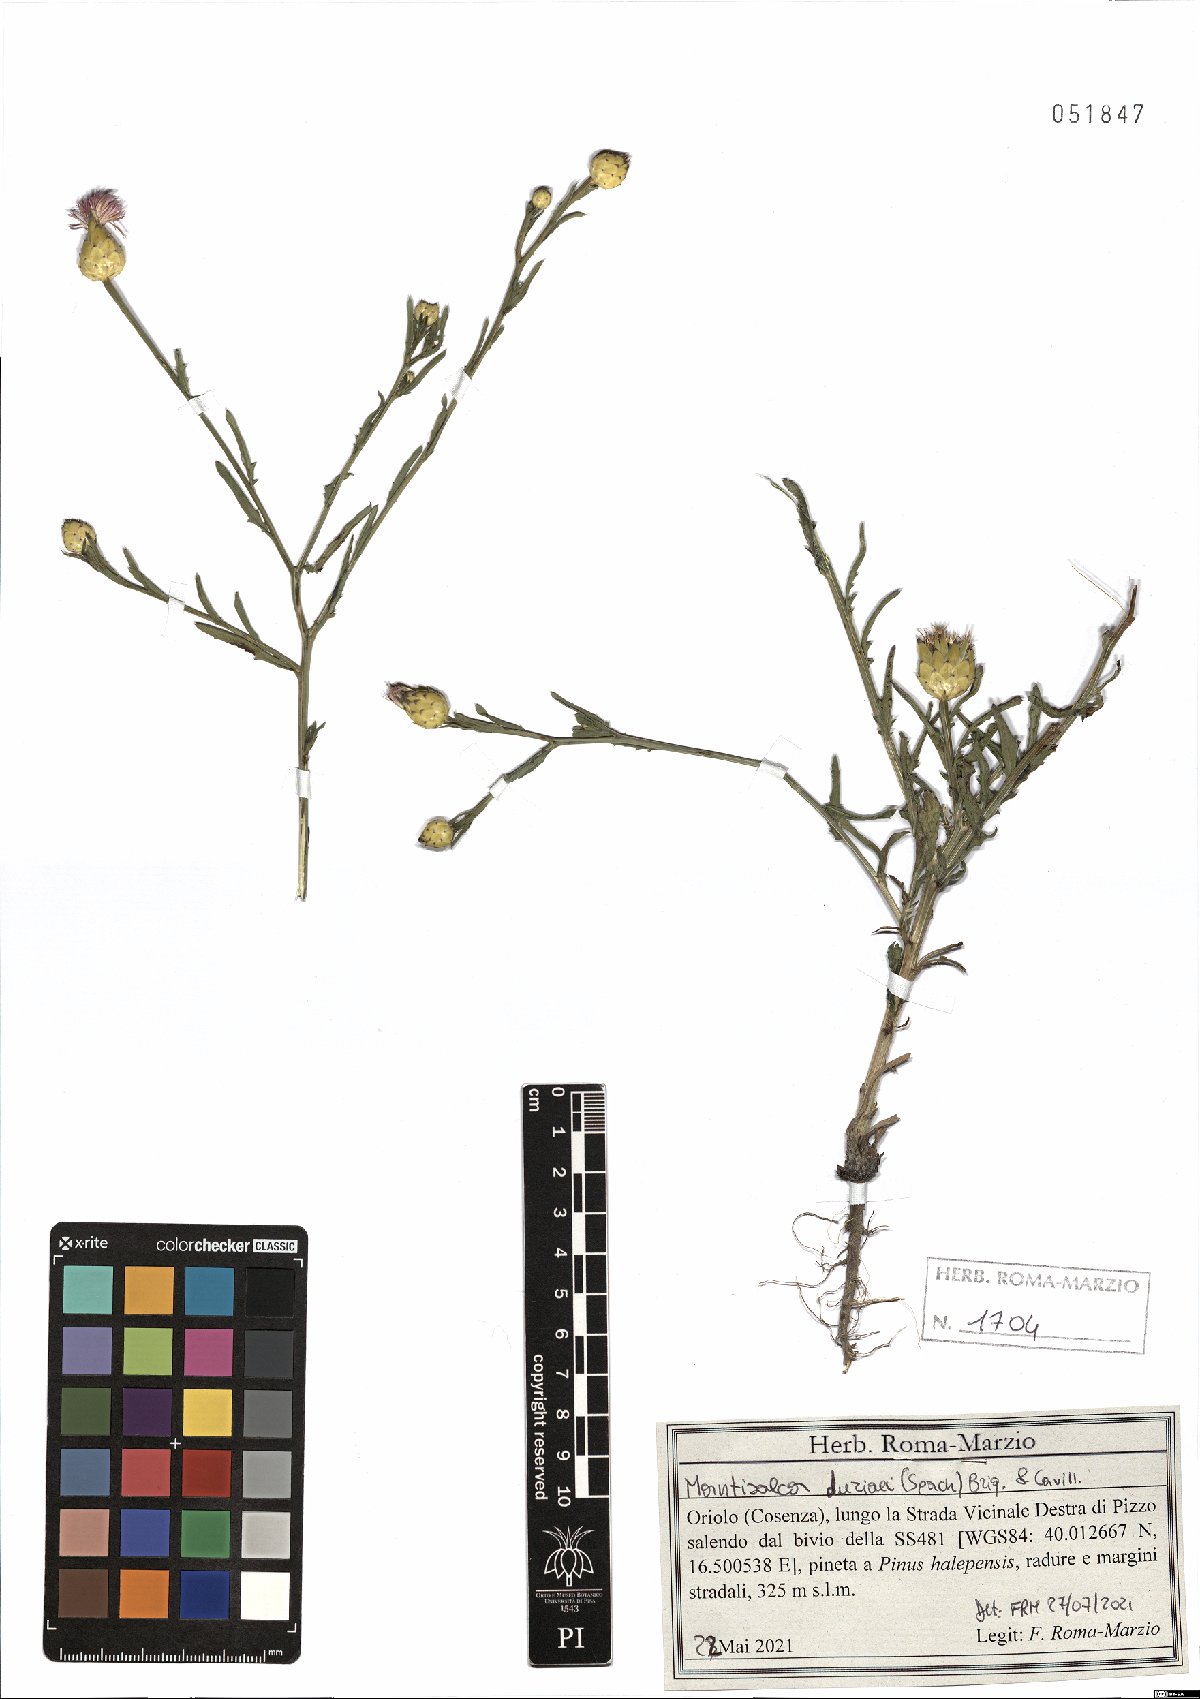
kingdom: Plantae
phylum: Tracheophyta
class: Magnoliopsida
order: Asterales
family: Asteraceae
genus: Mantisalca
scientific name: Mantisalca duriaei
